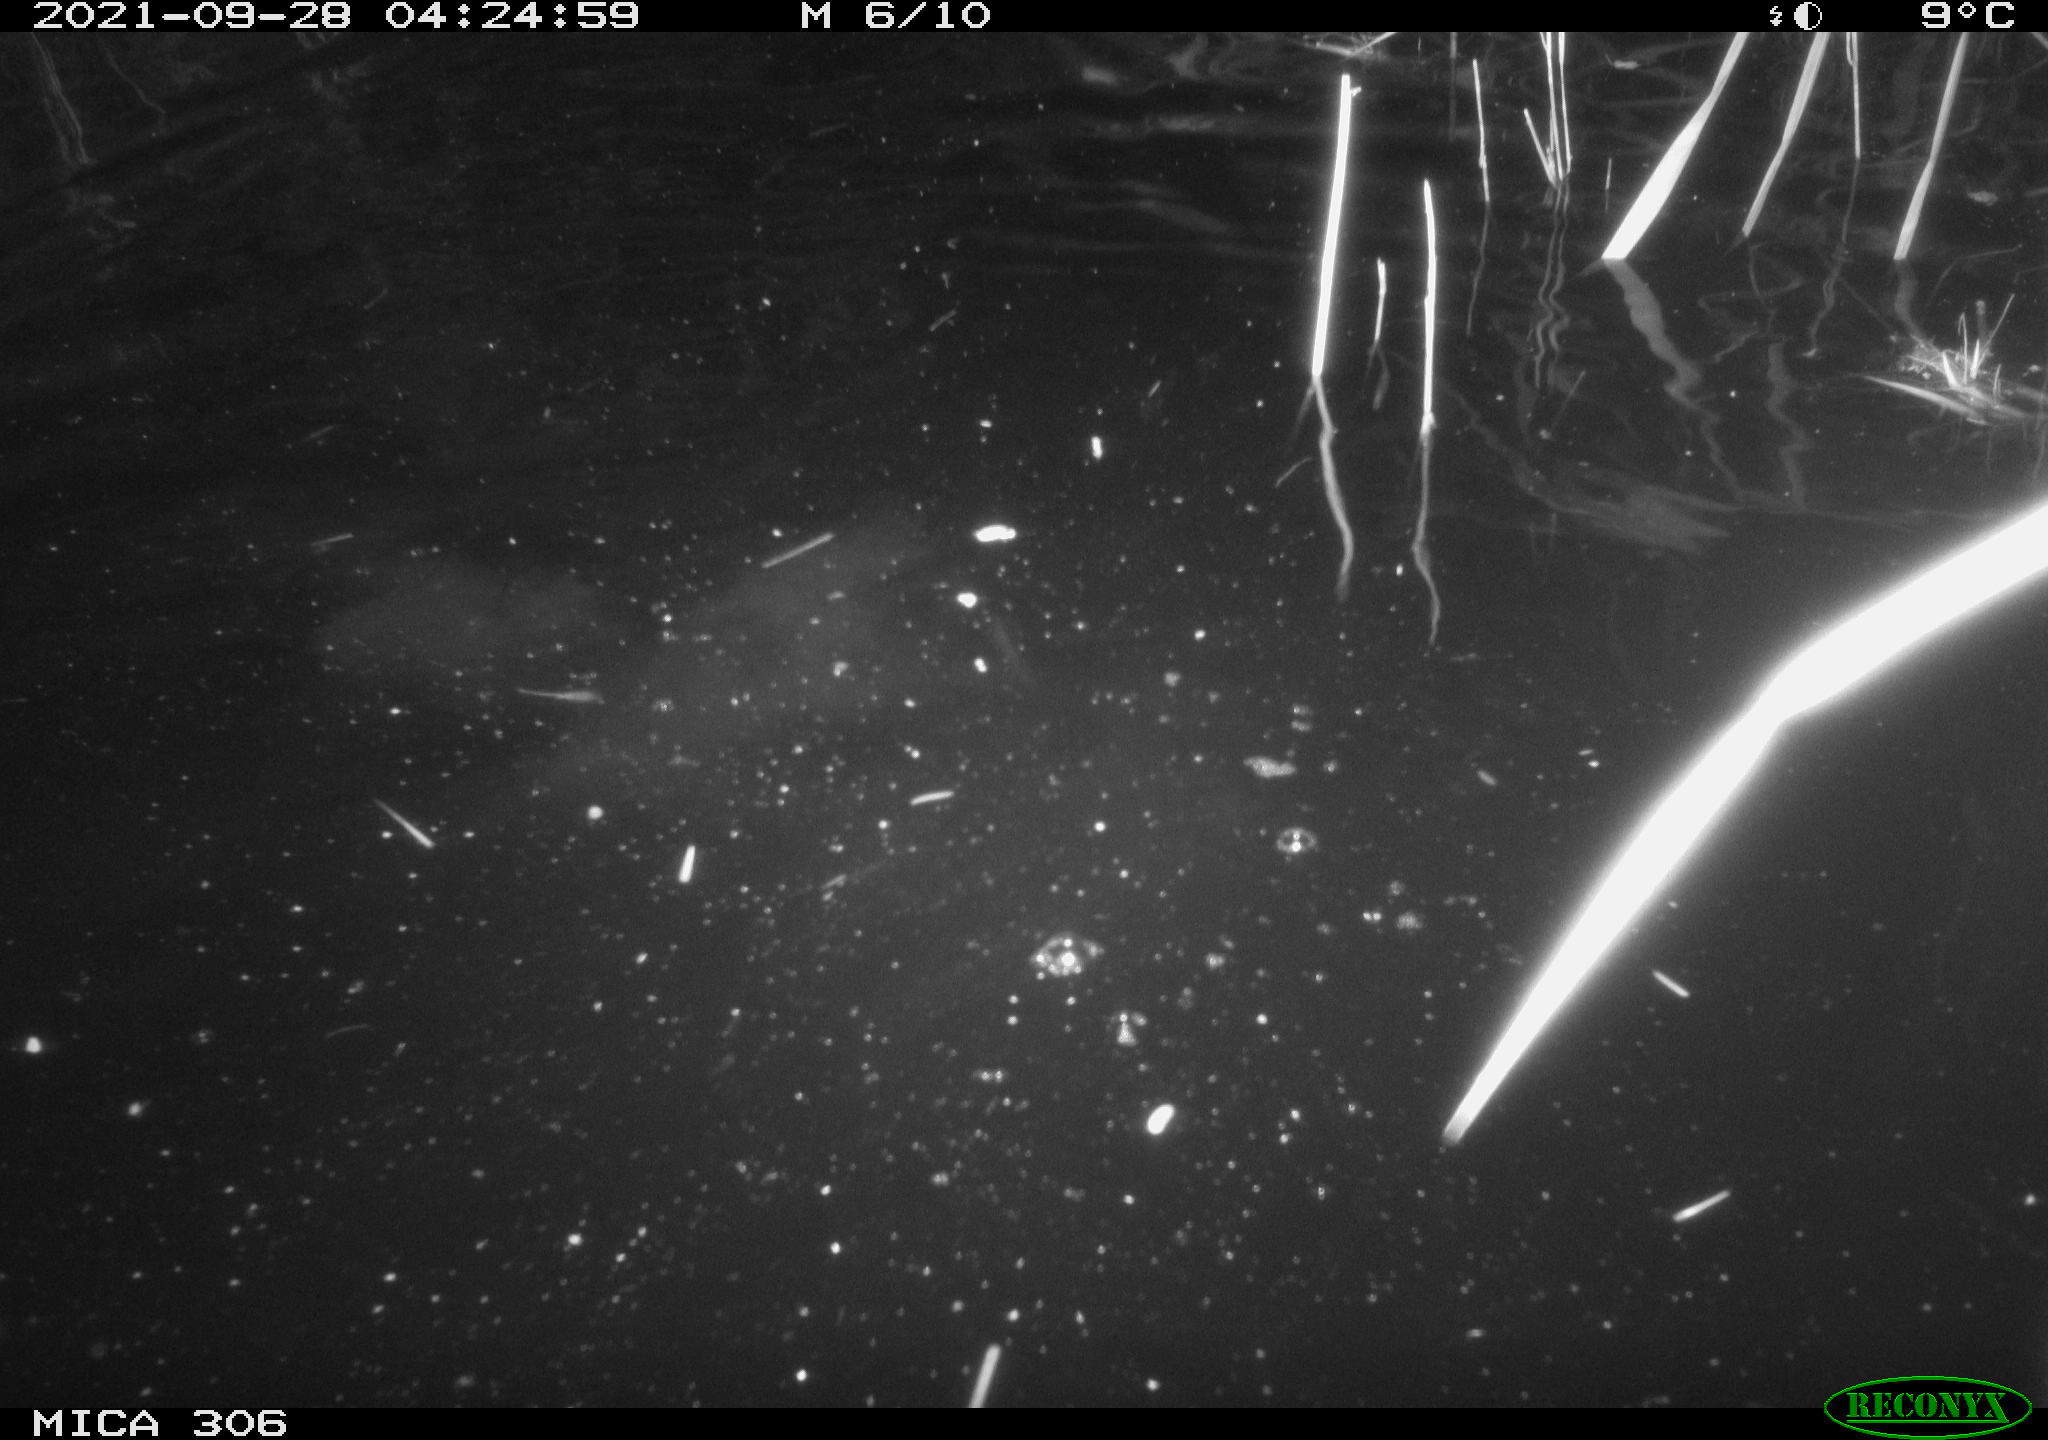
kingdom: Animalia
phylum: Chordata
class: Mammalia
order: Rodentia
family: Cricetidae
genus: Ondatra
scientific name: Ondatra zibethicus
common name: Muskrat
